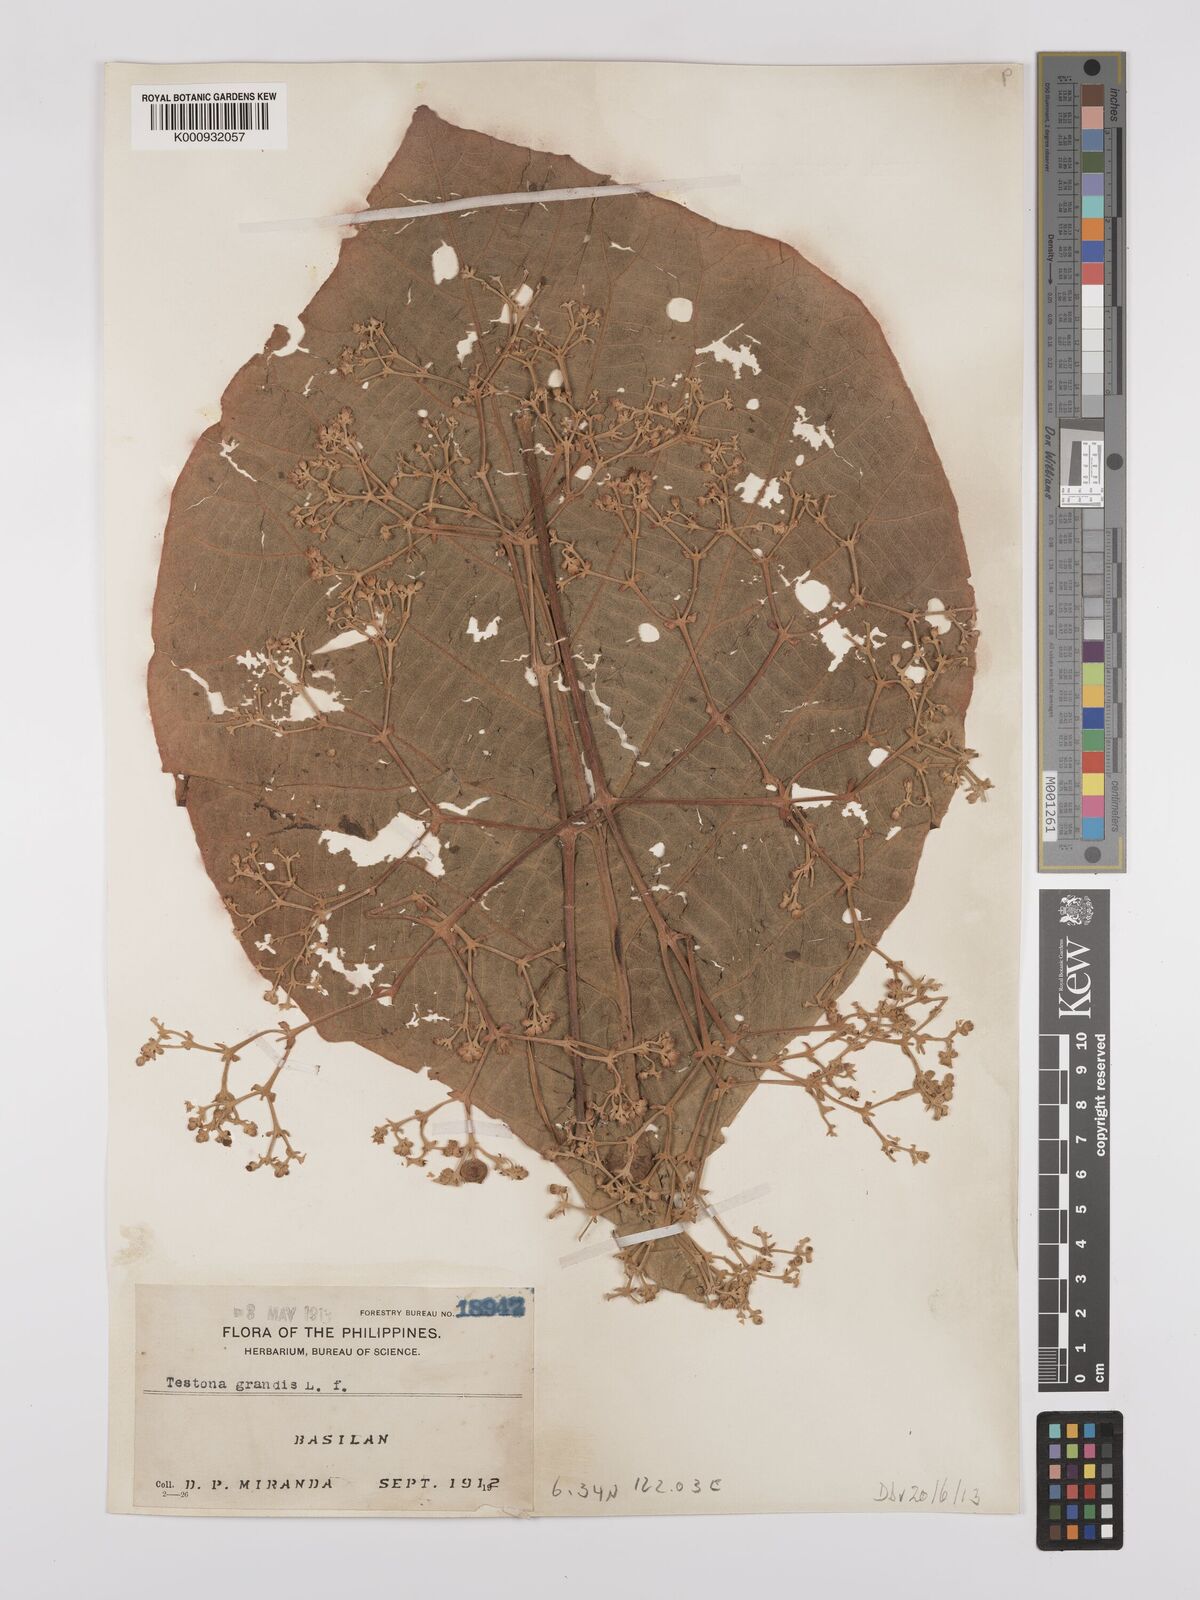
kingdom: Plantae
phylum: Tracheophyta
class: Magnoliopsida
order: Lamiales
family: Lamiaceae
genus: Tectona
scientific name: Tectona grandis
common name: Teak
